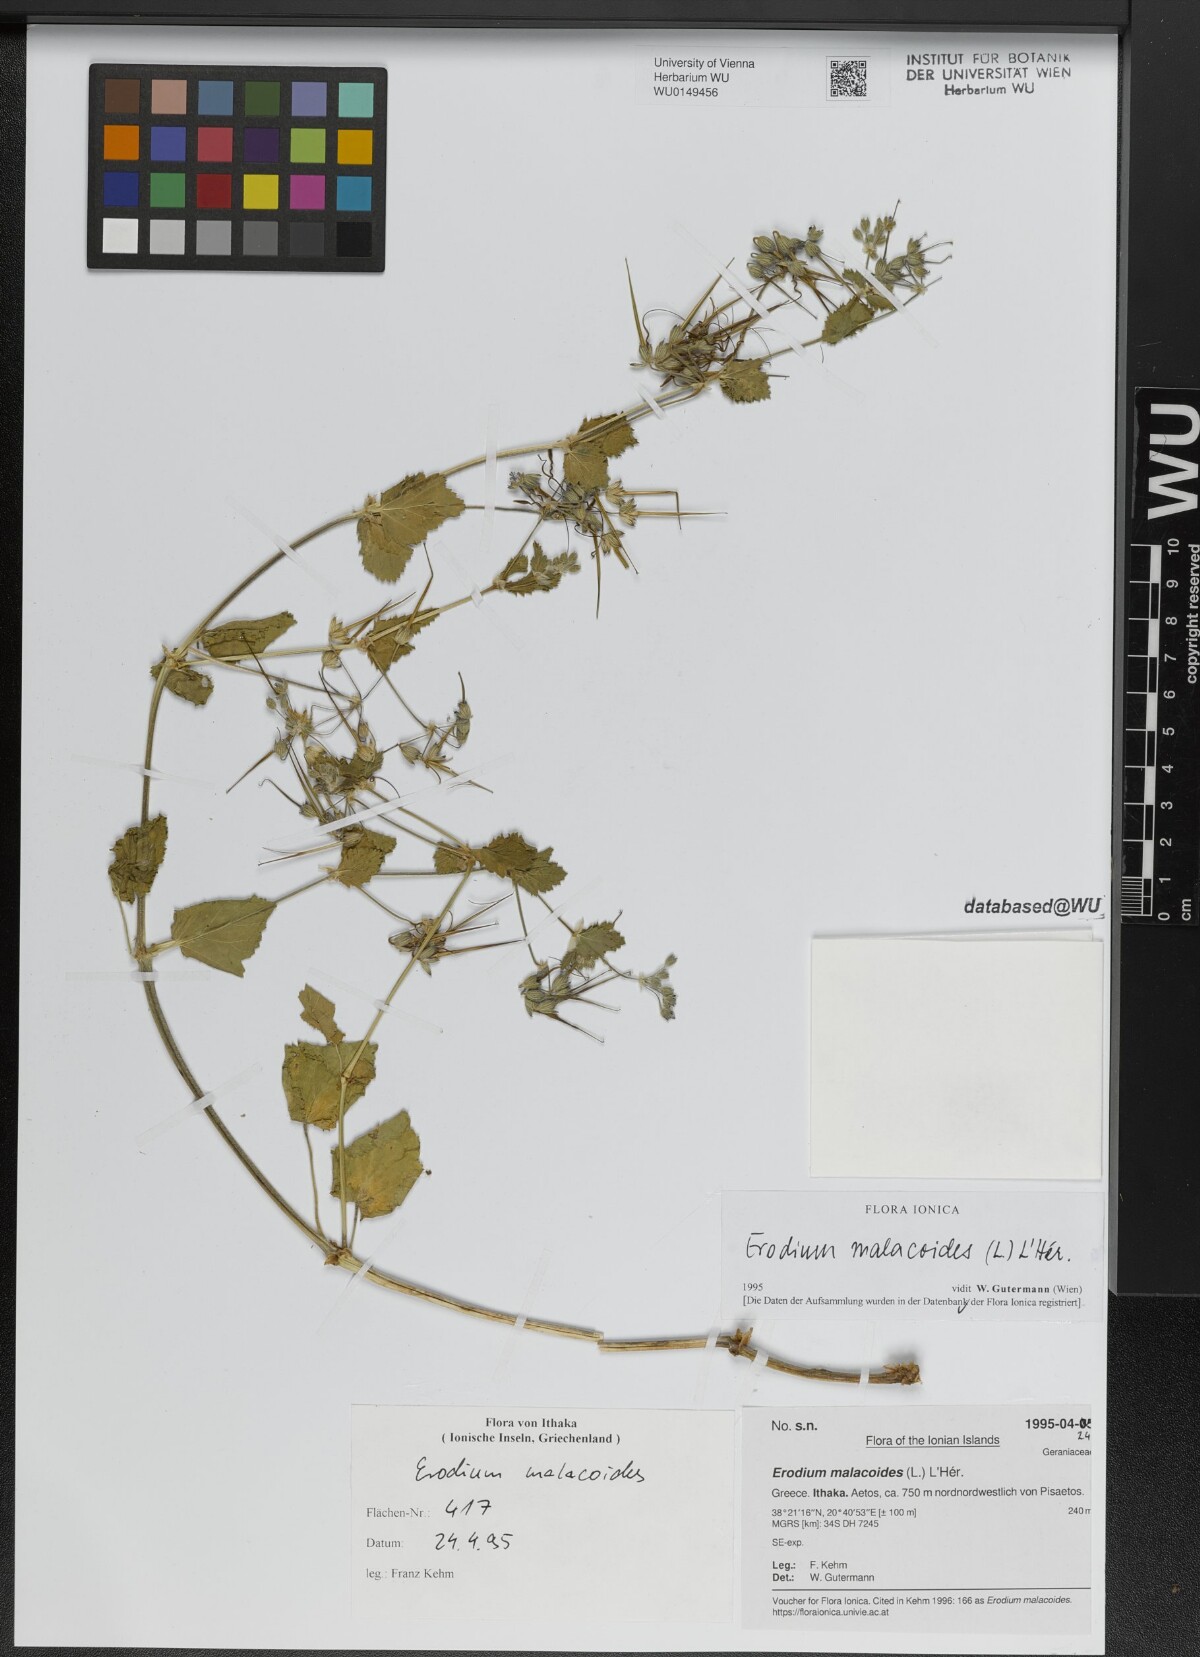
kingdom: Plantae
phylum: Tracheophyta
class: Magnoliopsida
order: Geraniales
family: Geraniaceae
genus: Erodium
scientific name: Erodium malacoides
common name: Soft stork's-bill
